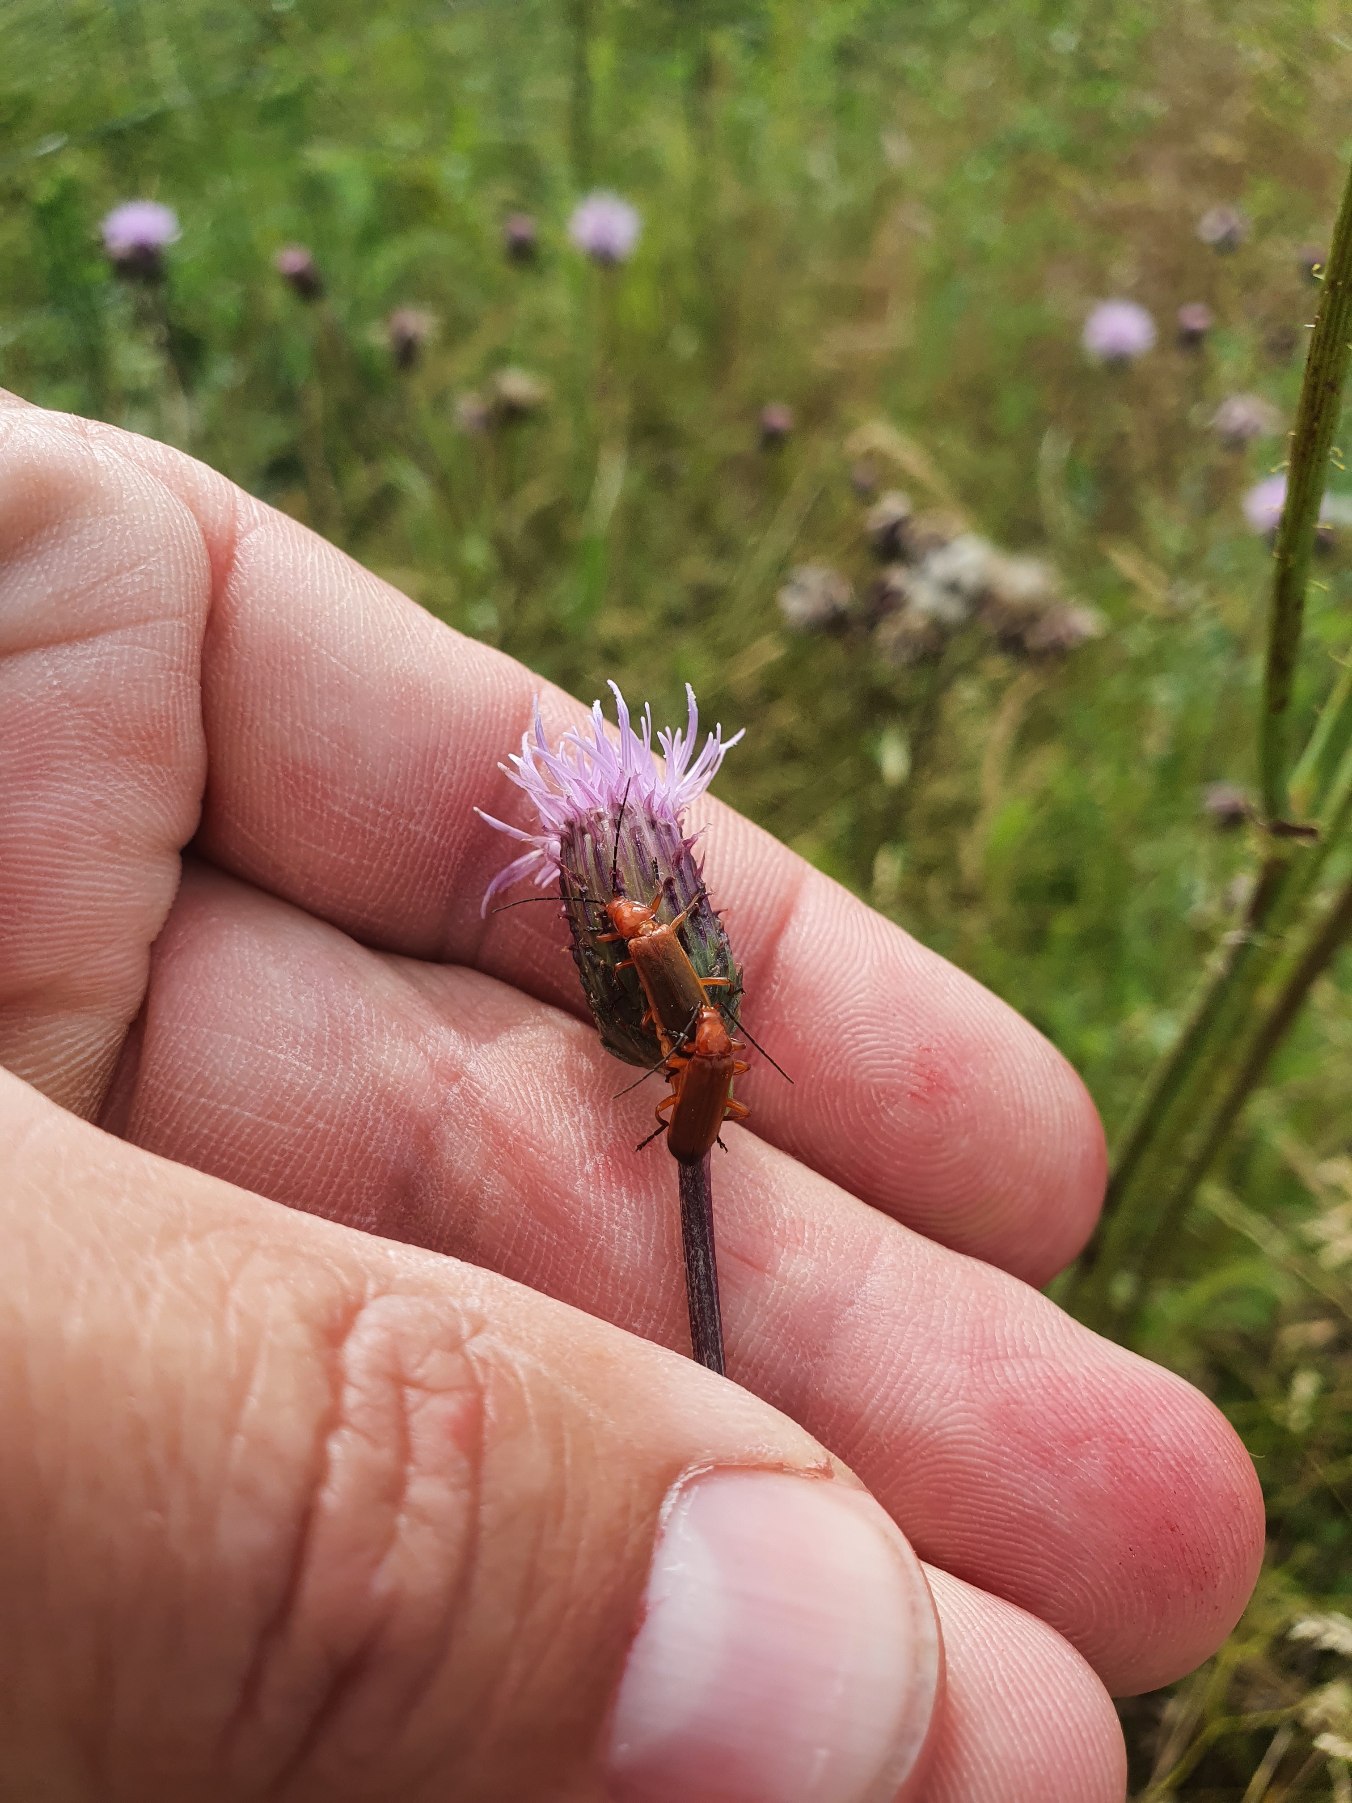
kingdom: Animalia
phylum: Arthropoda
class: Insecta
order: Coleoptera
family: Cantharidae
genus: Rhagonycha
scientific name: Rhagonycha fulva
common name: Præstebille
